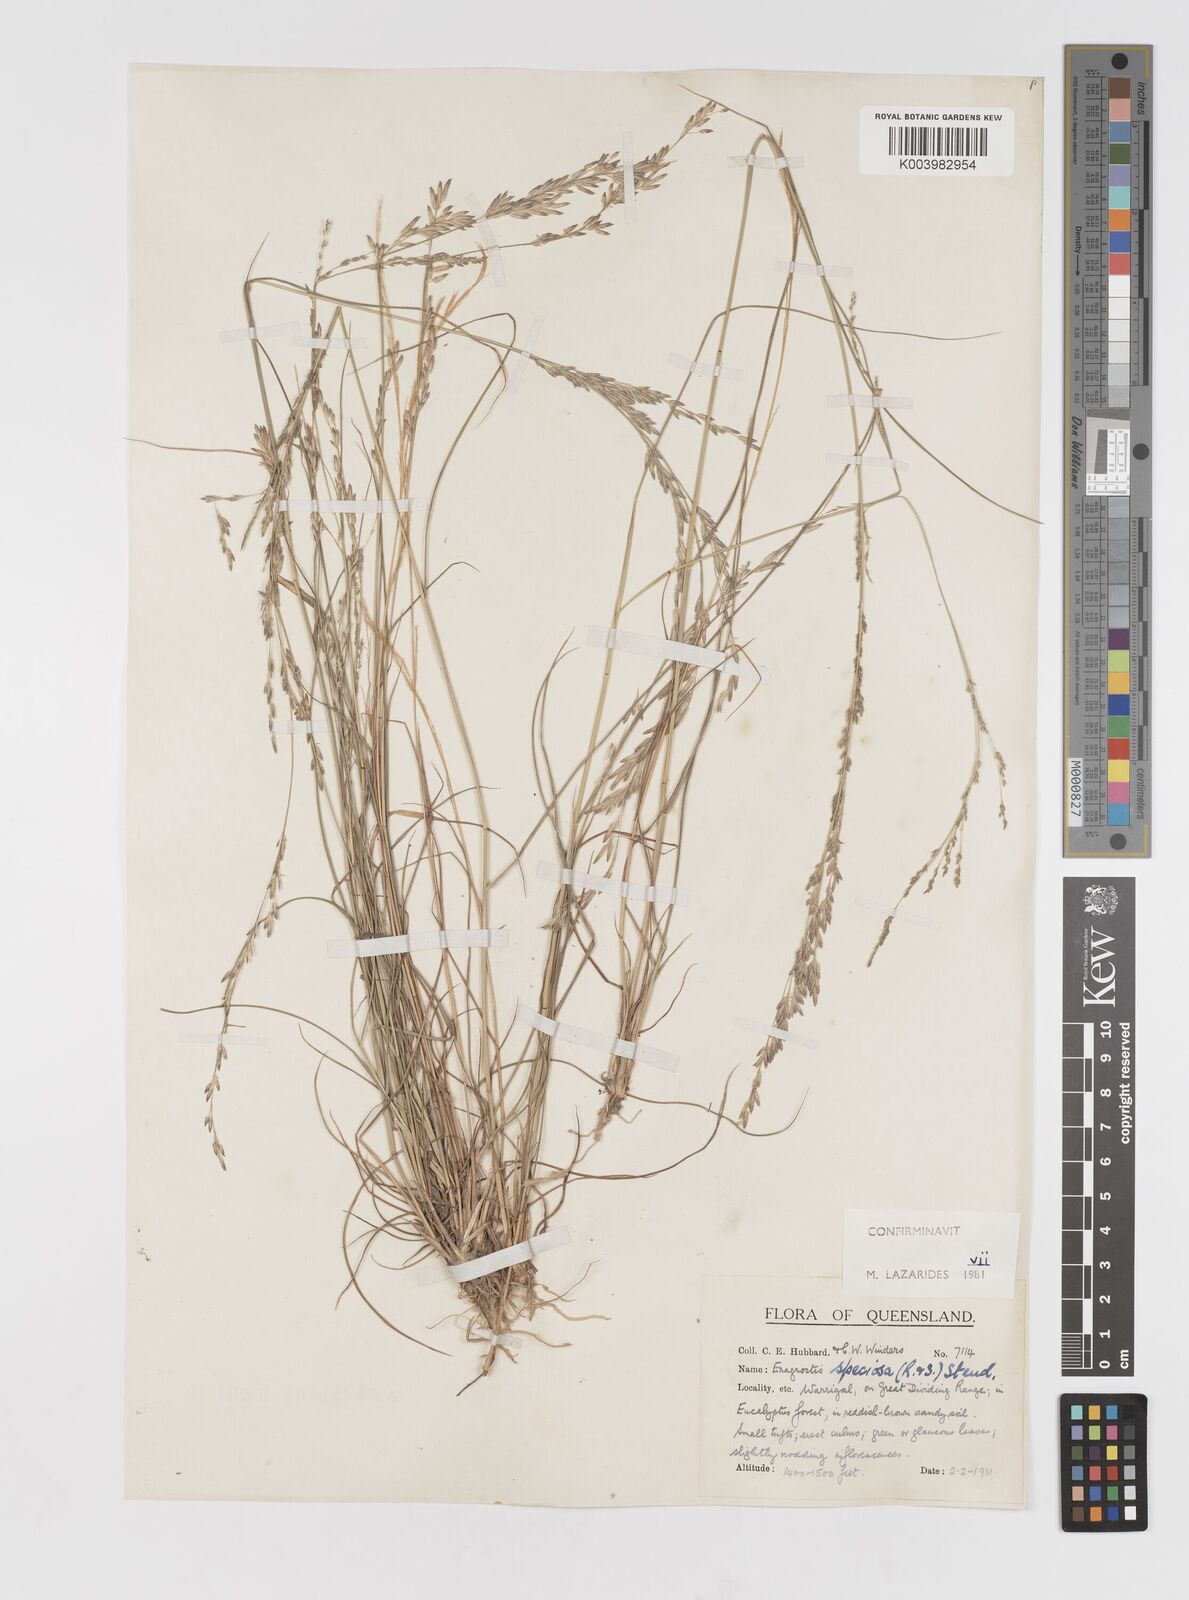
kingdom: Plantae
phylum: Tracheophyta
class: Liliopsida
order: Poales
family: Poaceae
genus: Eragrostis
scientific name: Eragrostis speciosa
